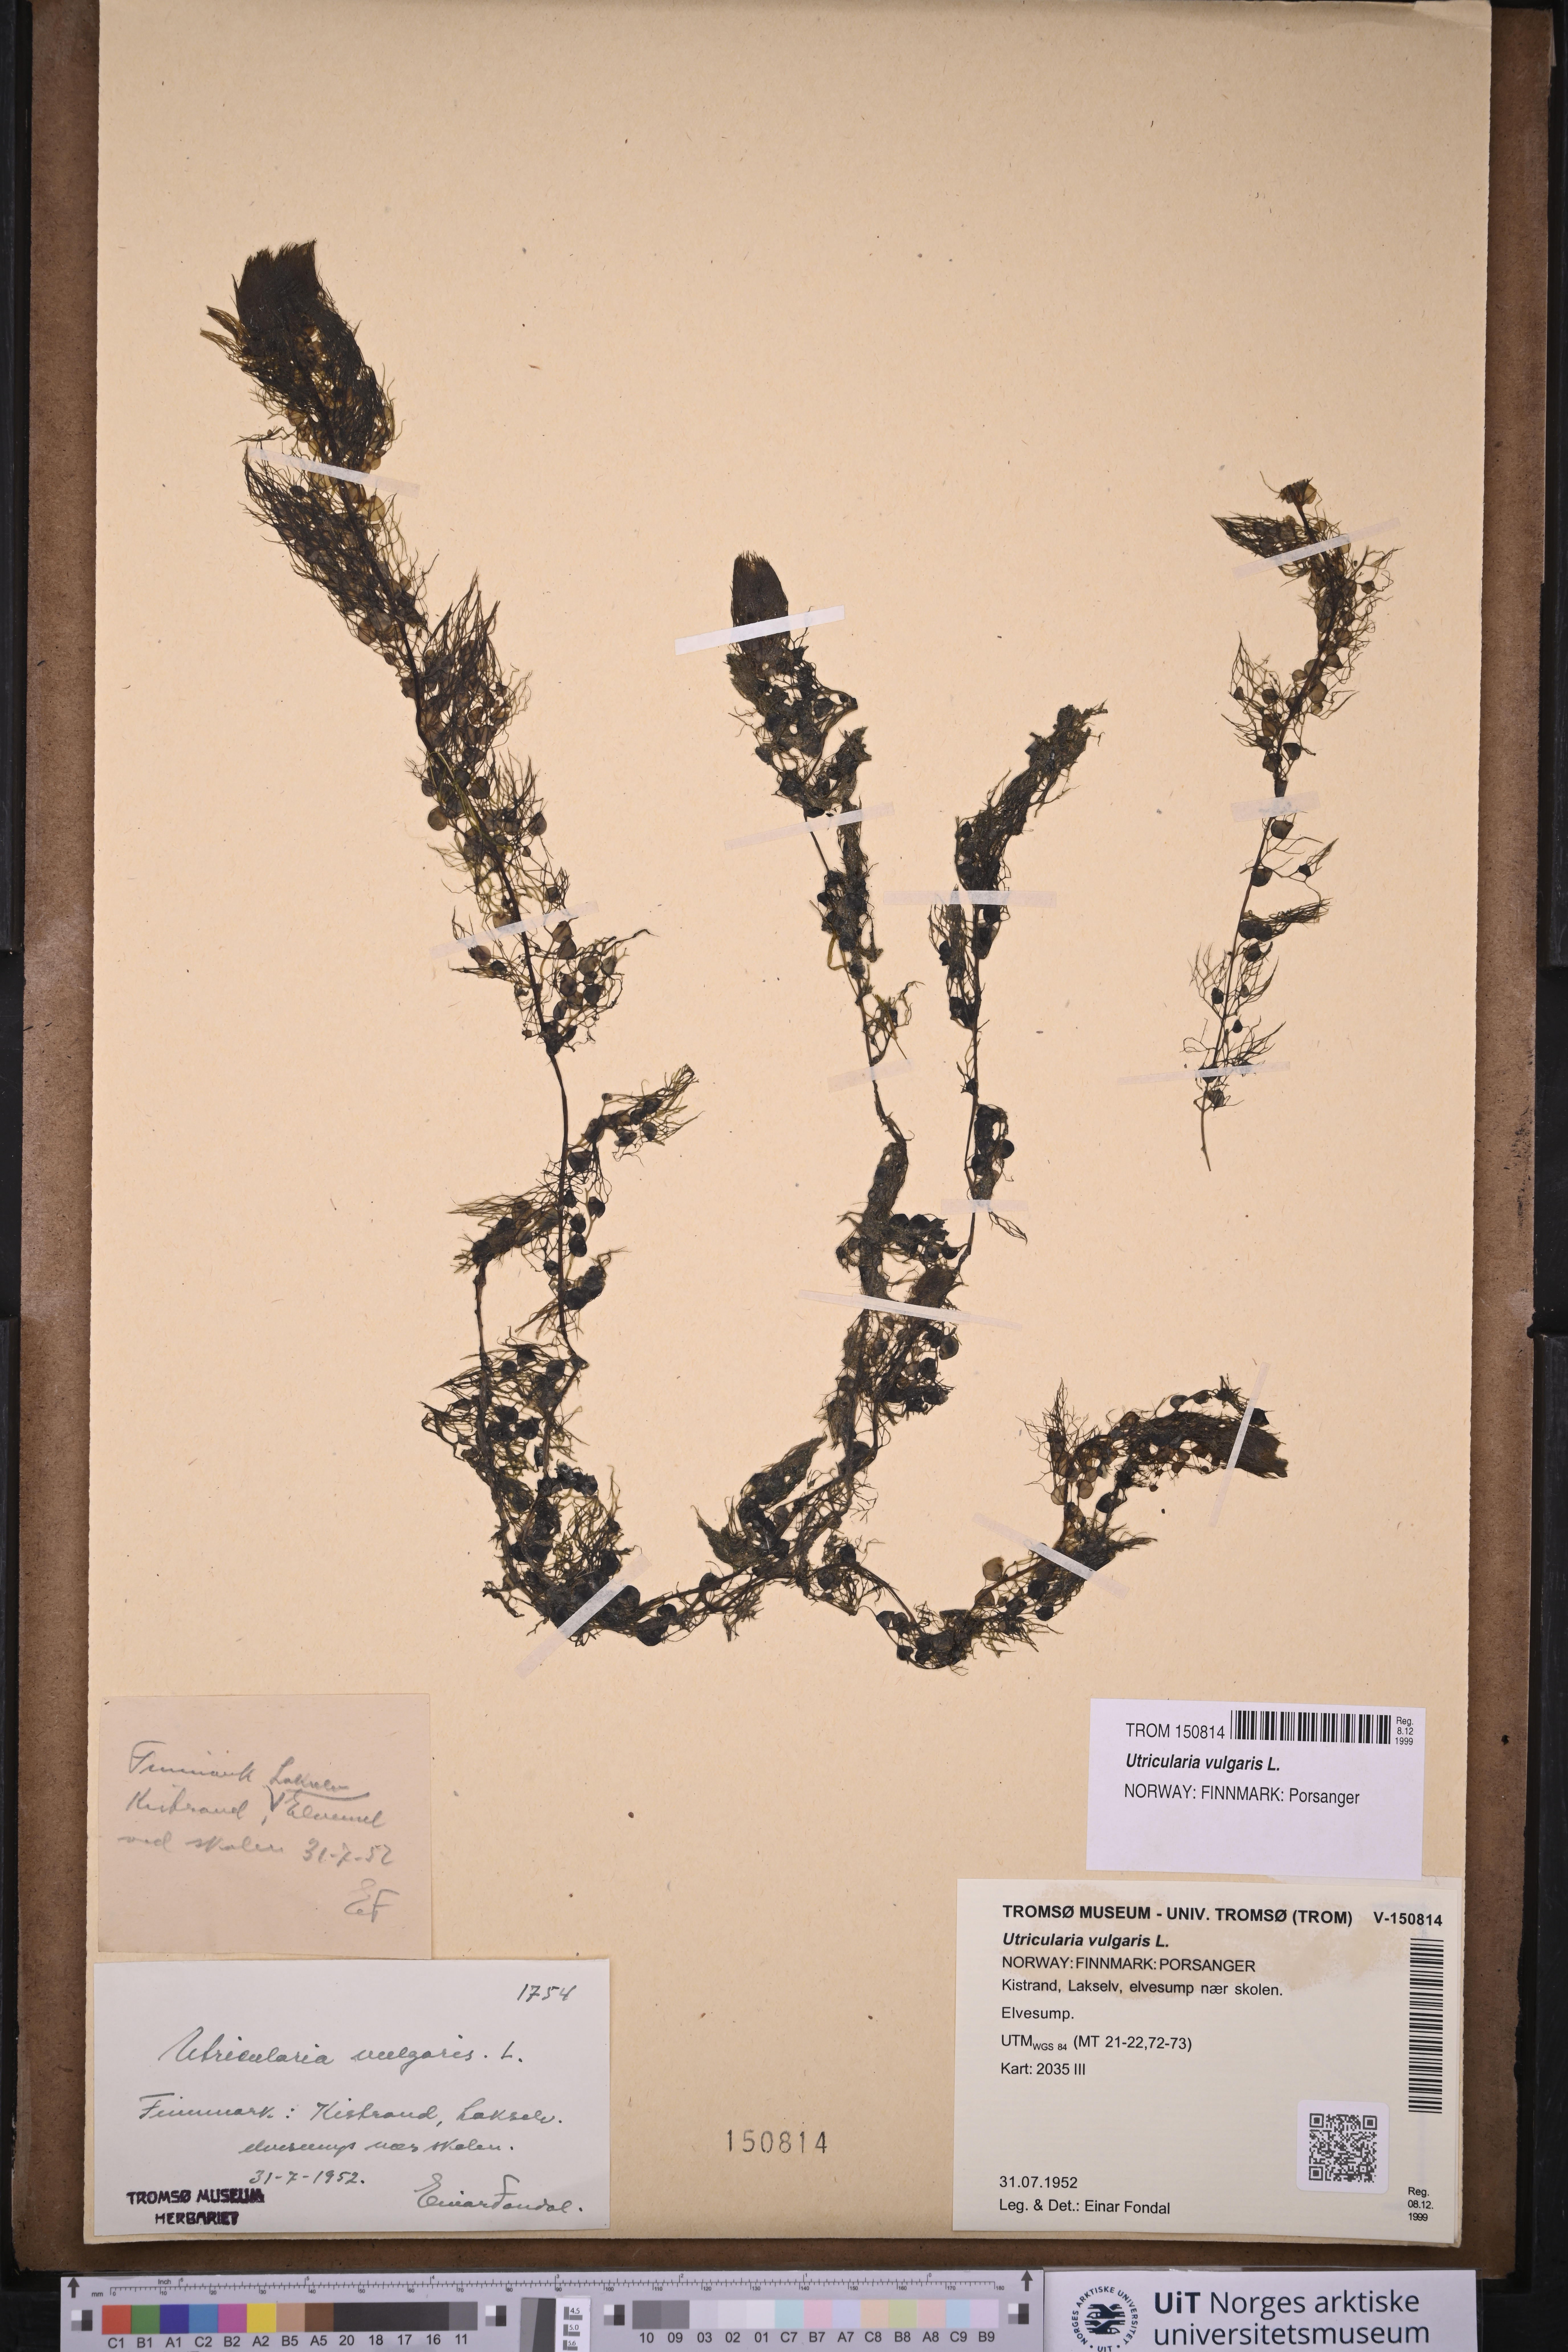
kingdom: Plantae
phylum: Tracheophyta
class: Magnoliopsida
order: Lamiales
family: Lentibulariaceae
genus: Utricularia
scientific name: Utricularia vulgaris
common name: Greater bladderwort
